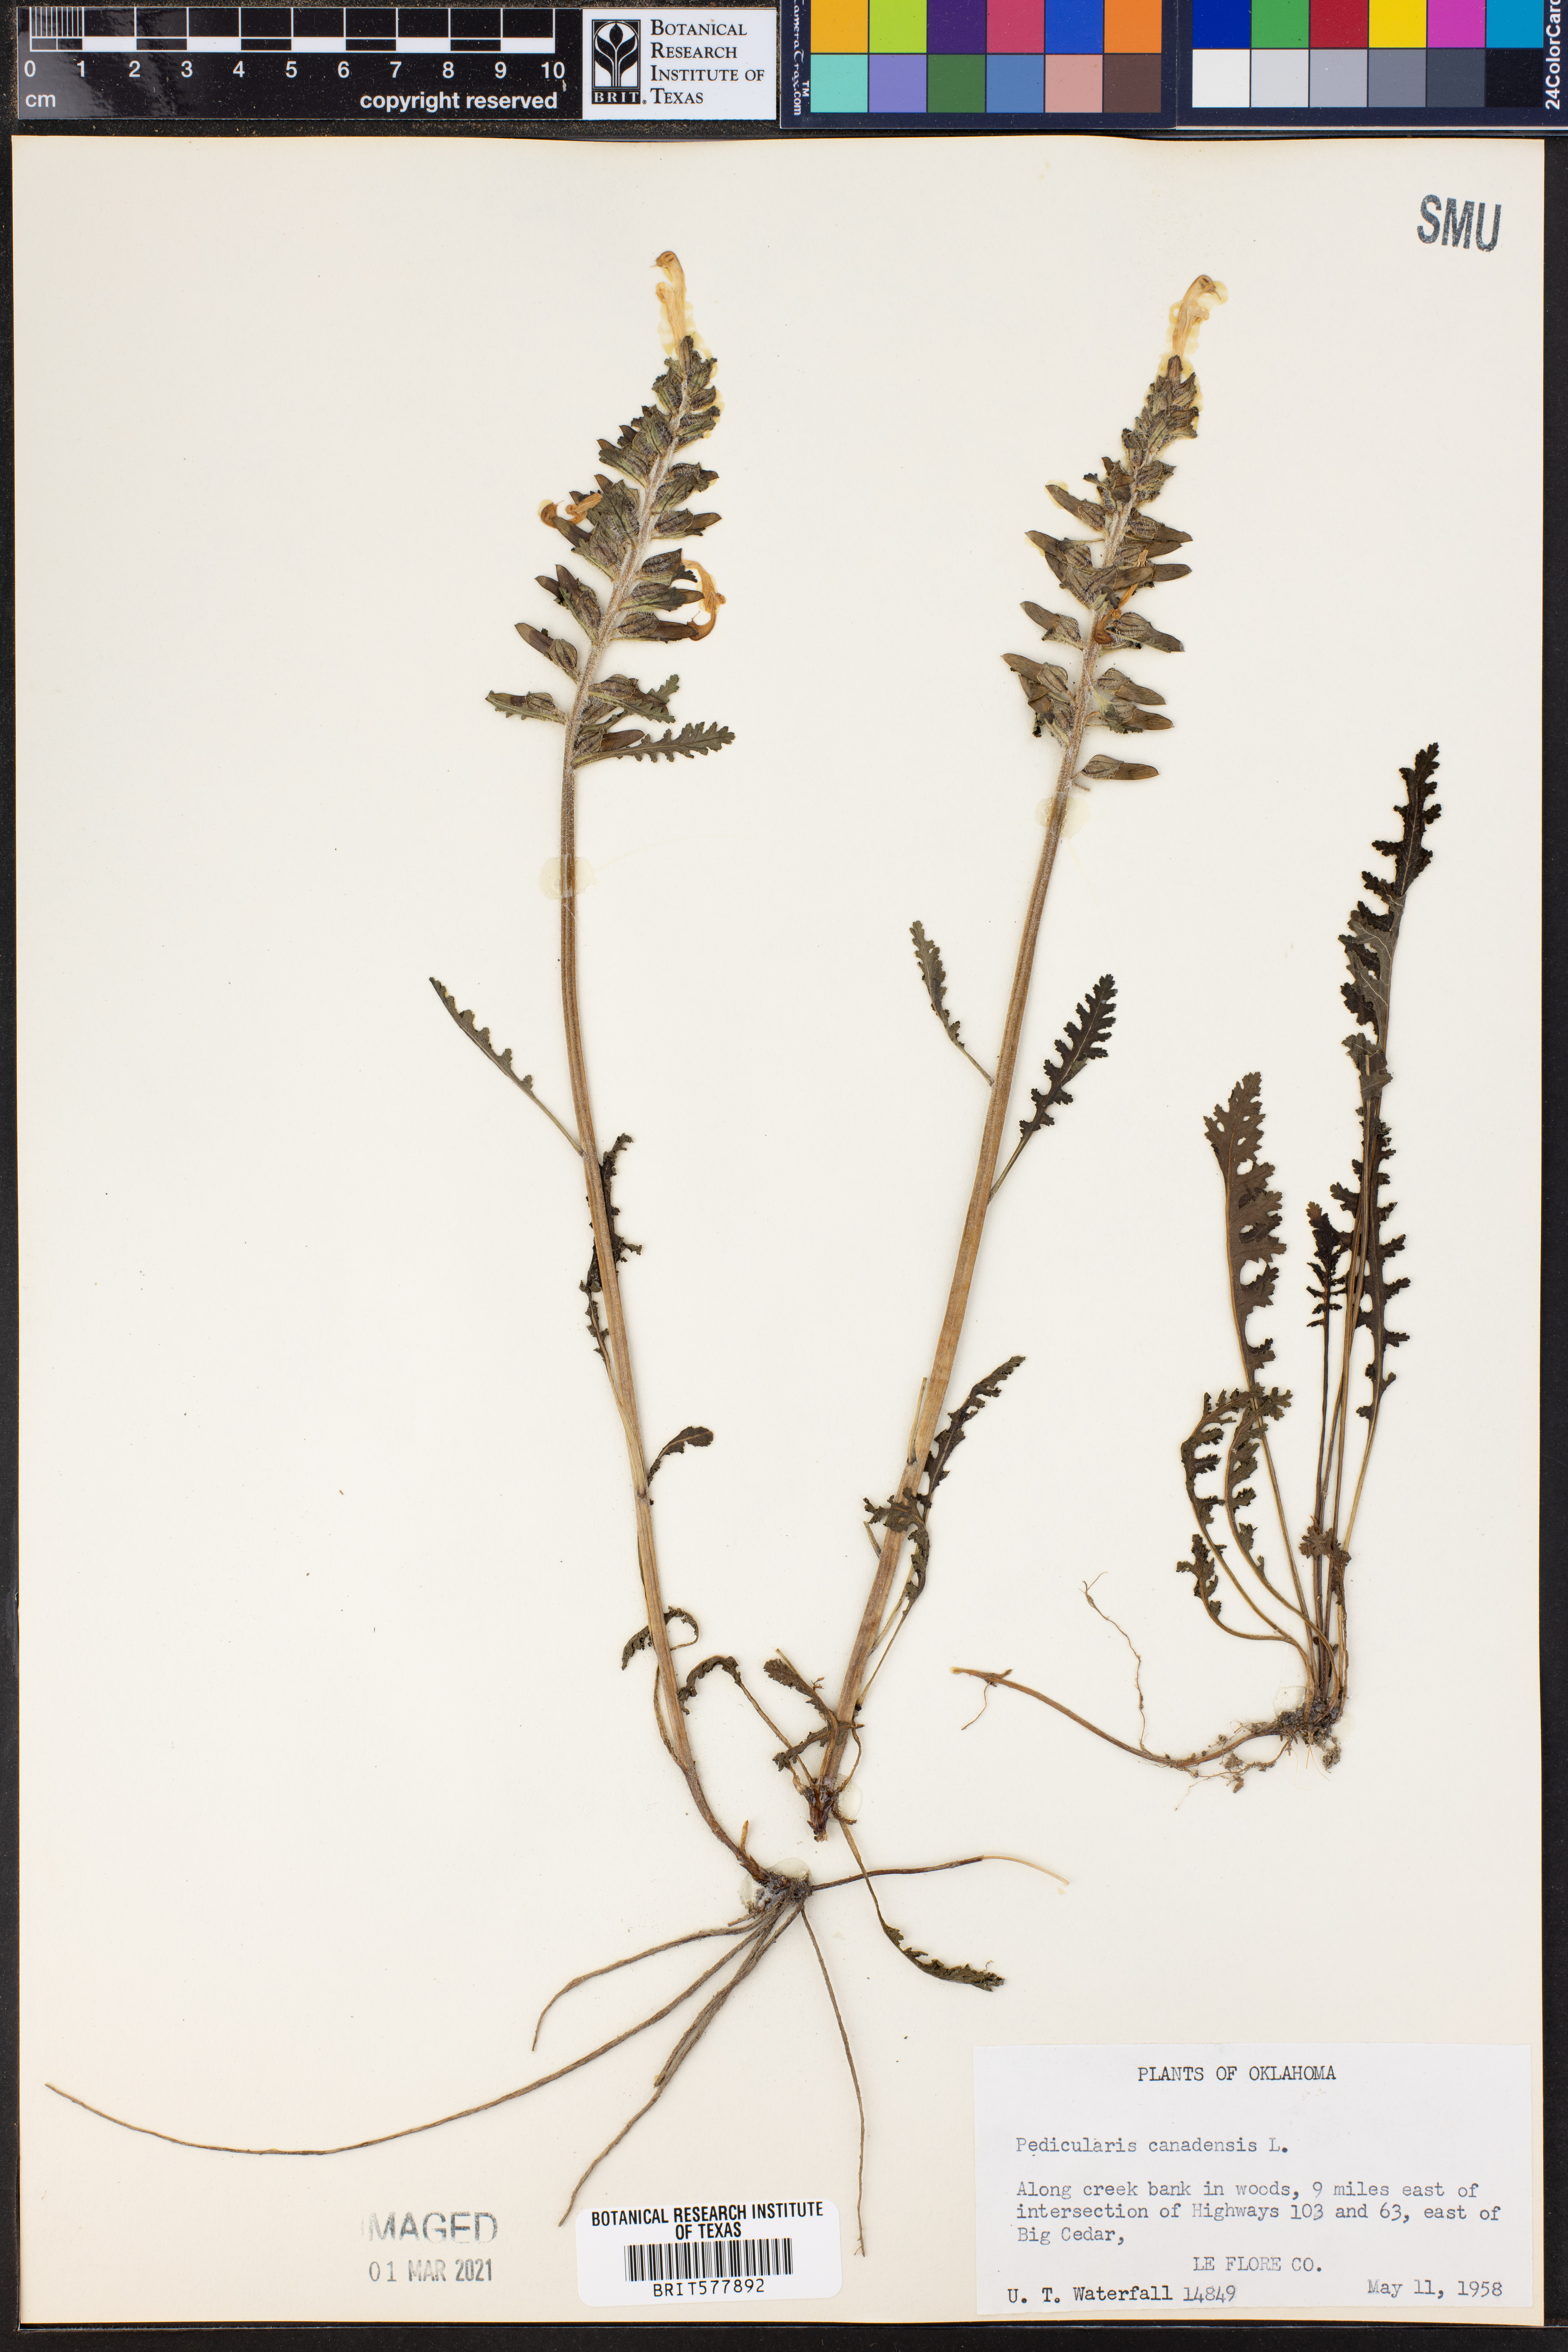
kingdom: Plantae
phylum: Tracheophyta
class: Magnoliopsida
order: Lamiales
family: Orobanchaceae
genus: Pedicularis
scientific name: Pedicularis canadensis
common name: Early lousewort
